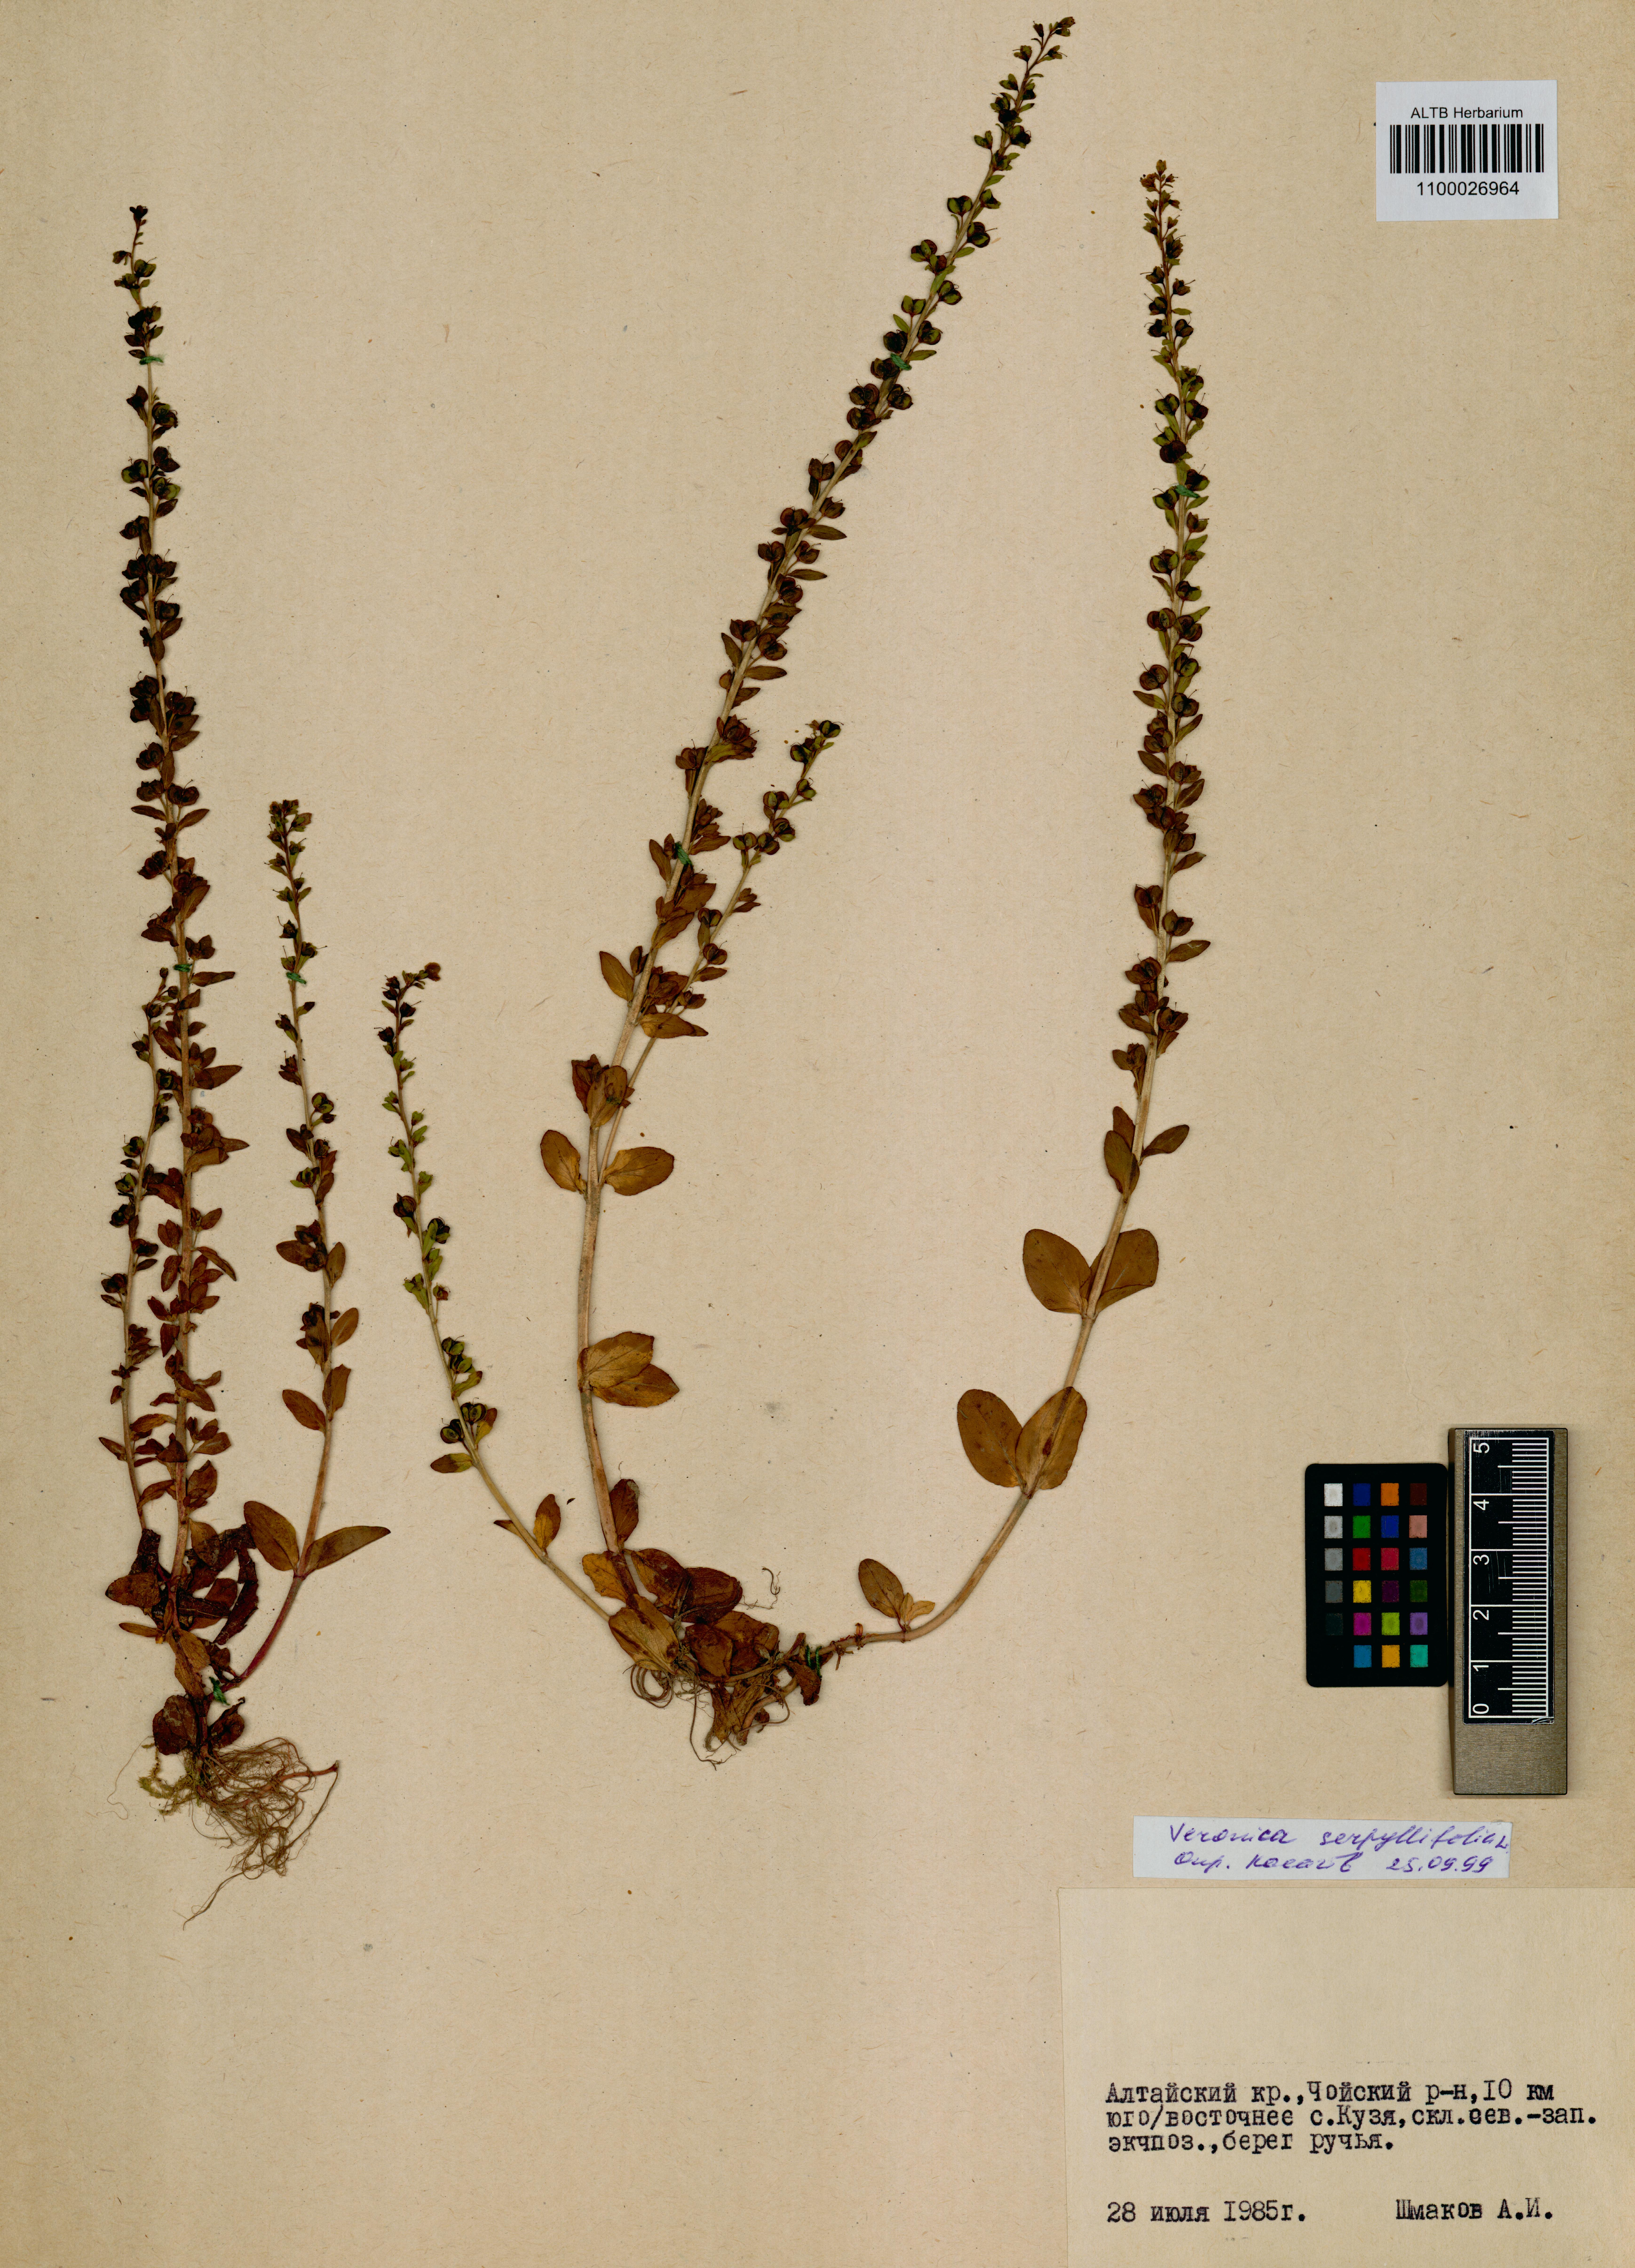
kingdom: Plantae
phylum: Tracheophyta
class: Magnoliopsida
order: Lamiales
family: Plantaginaceae
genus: Veronica
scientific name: Veronica serpyllifolia
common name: Thyme-leaved speedwell
